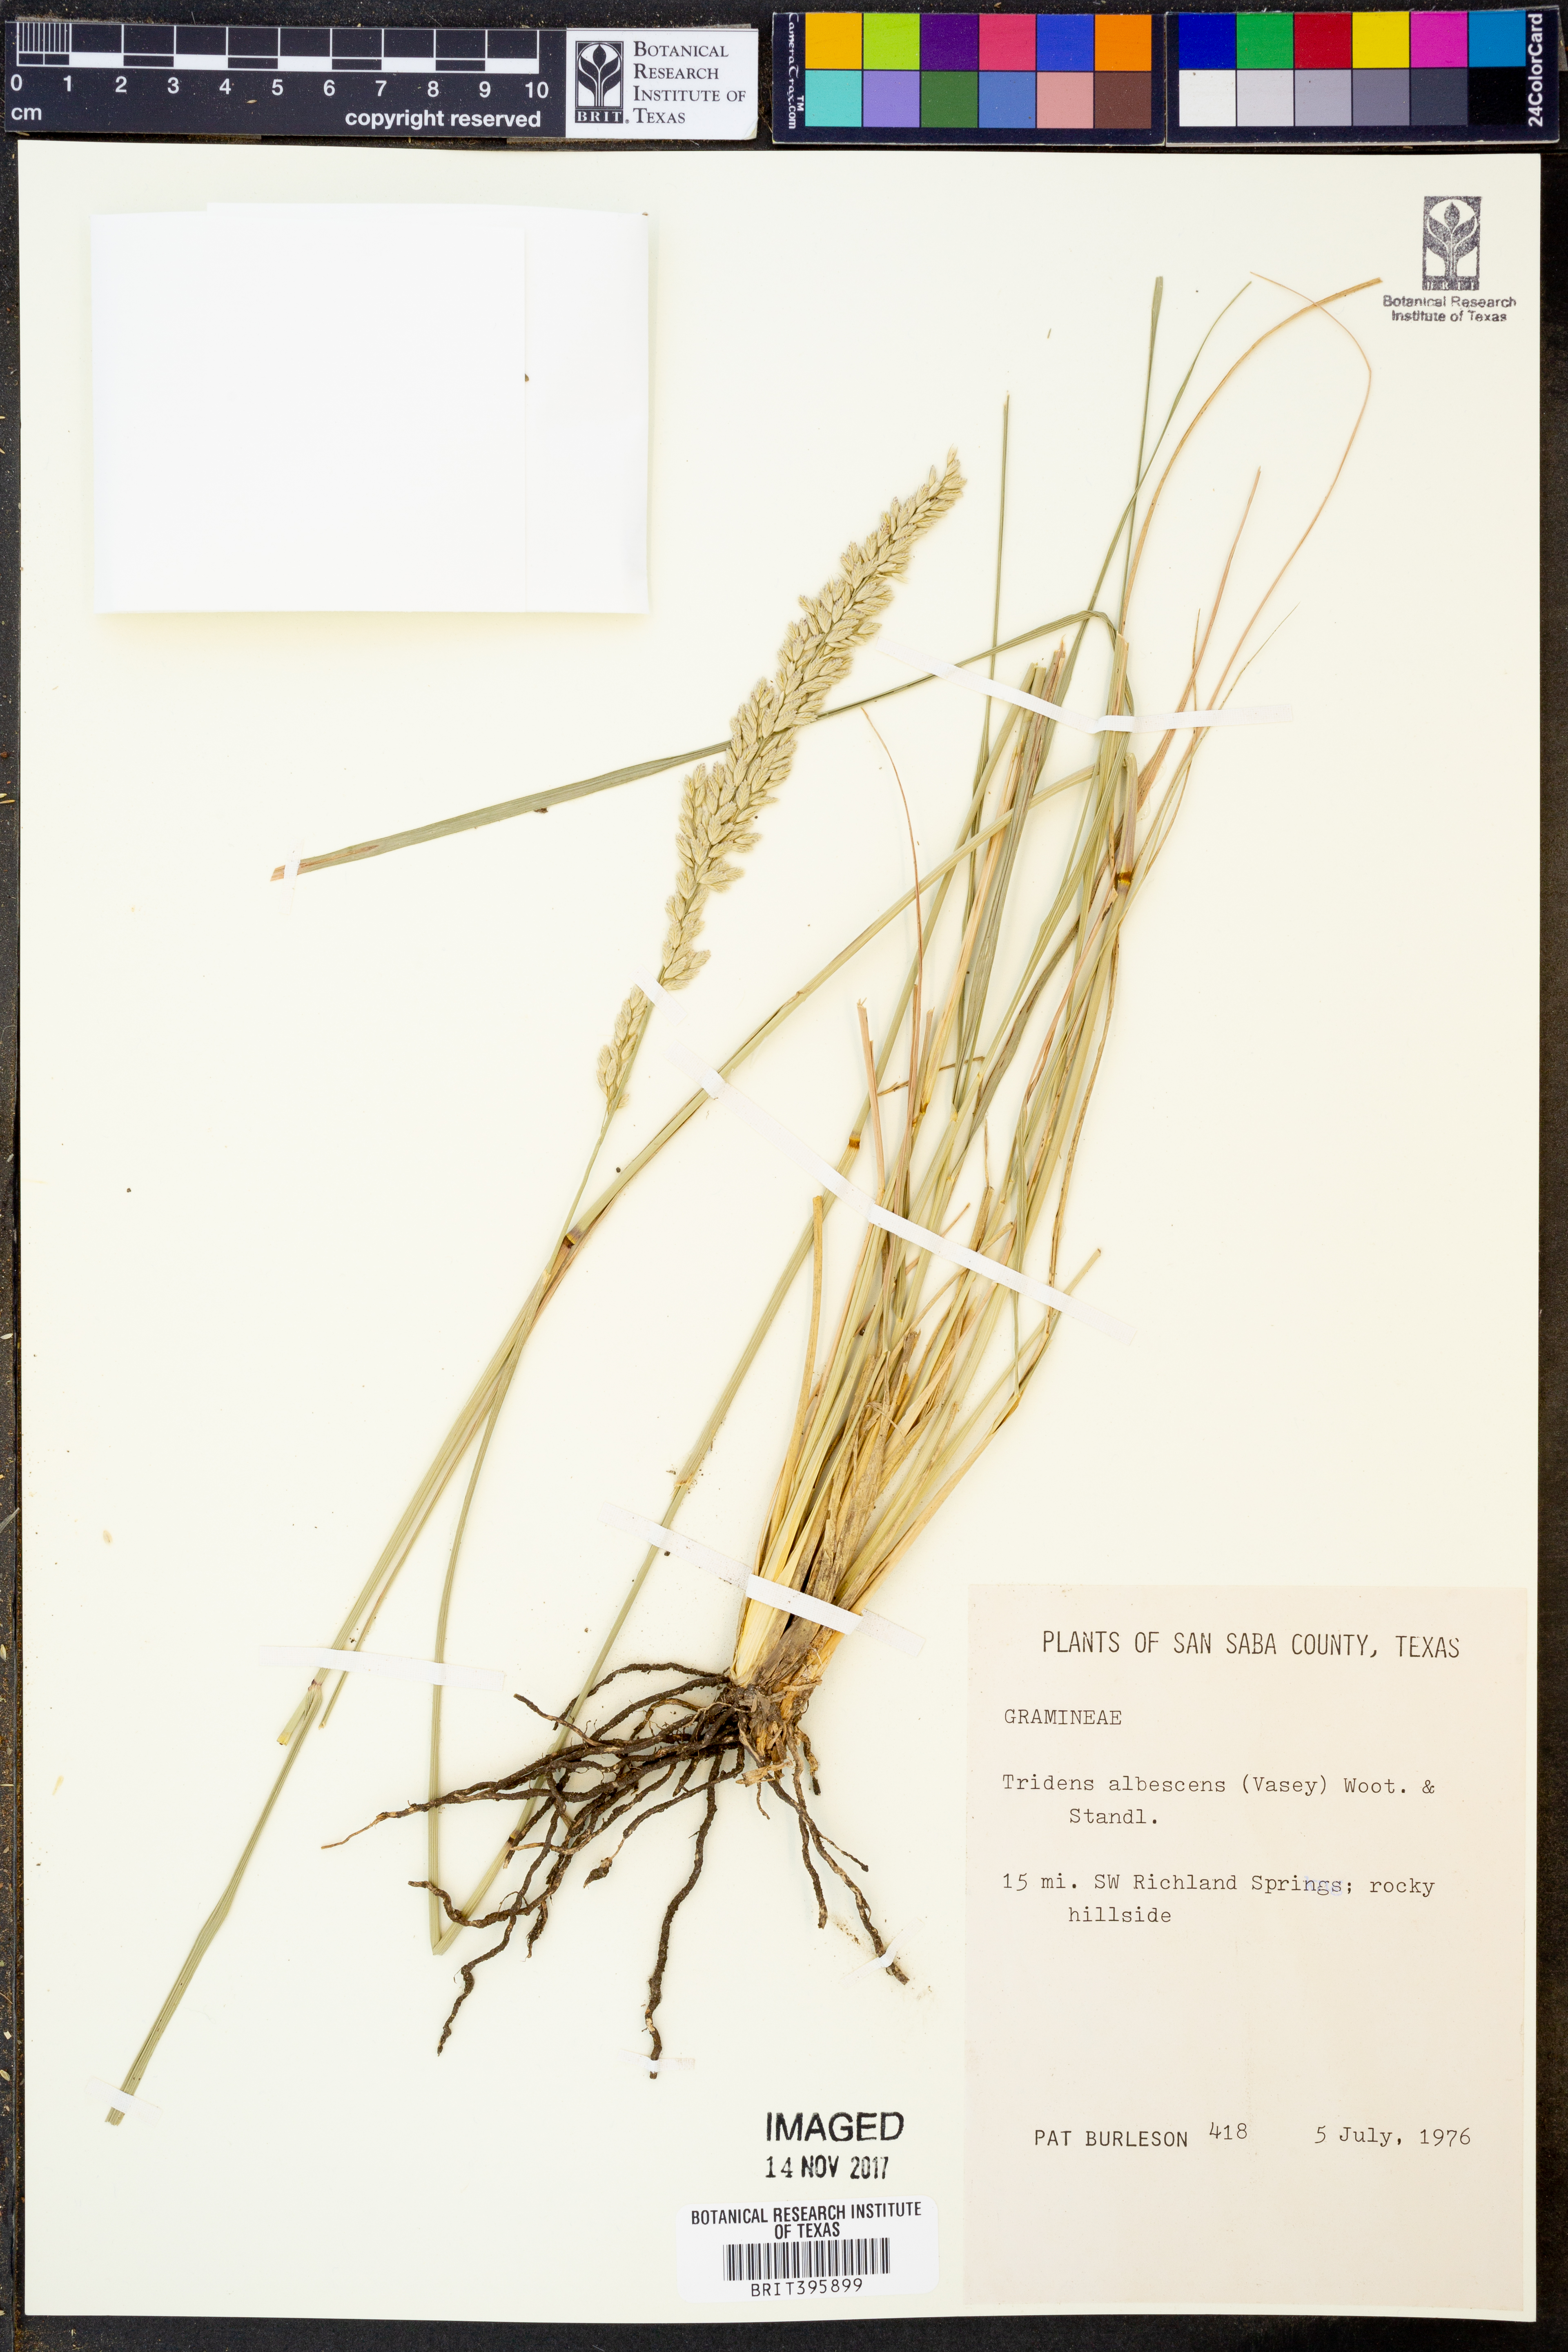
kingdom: Plantae
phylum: Tracheophyta
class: Liliopsida
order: Poales
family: Poaceae
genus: Tridens
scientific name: Tridens albescens
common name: White tridens
